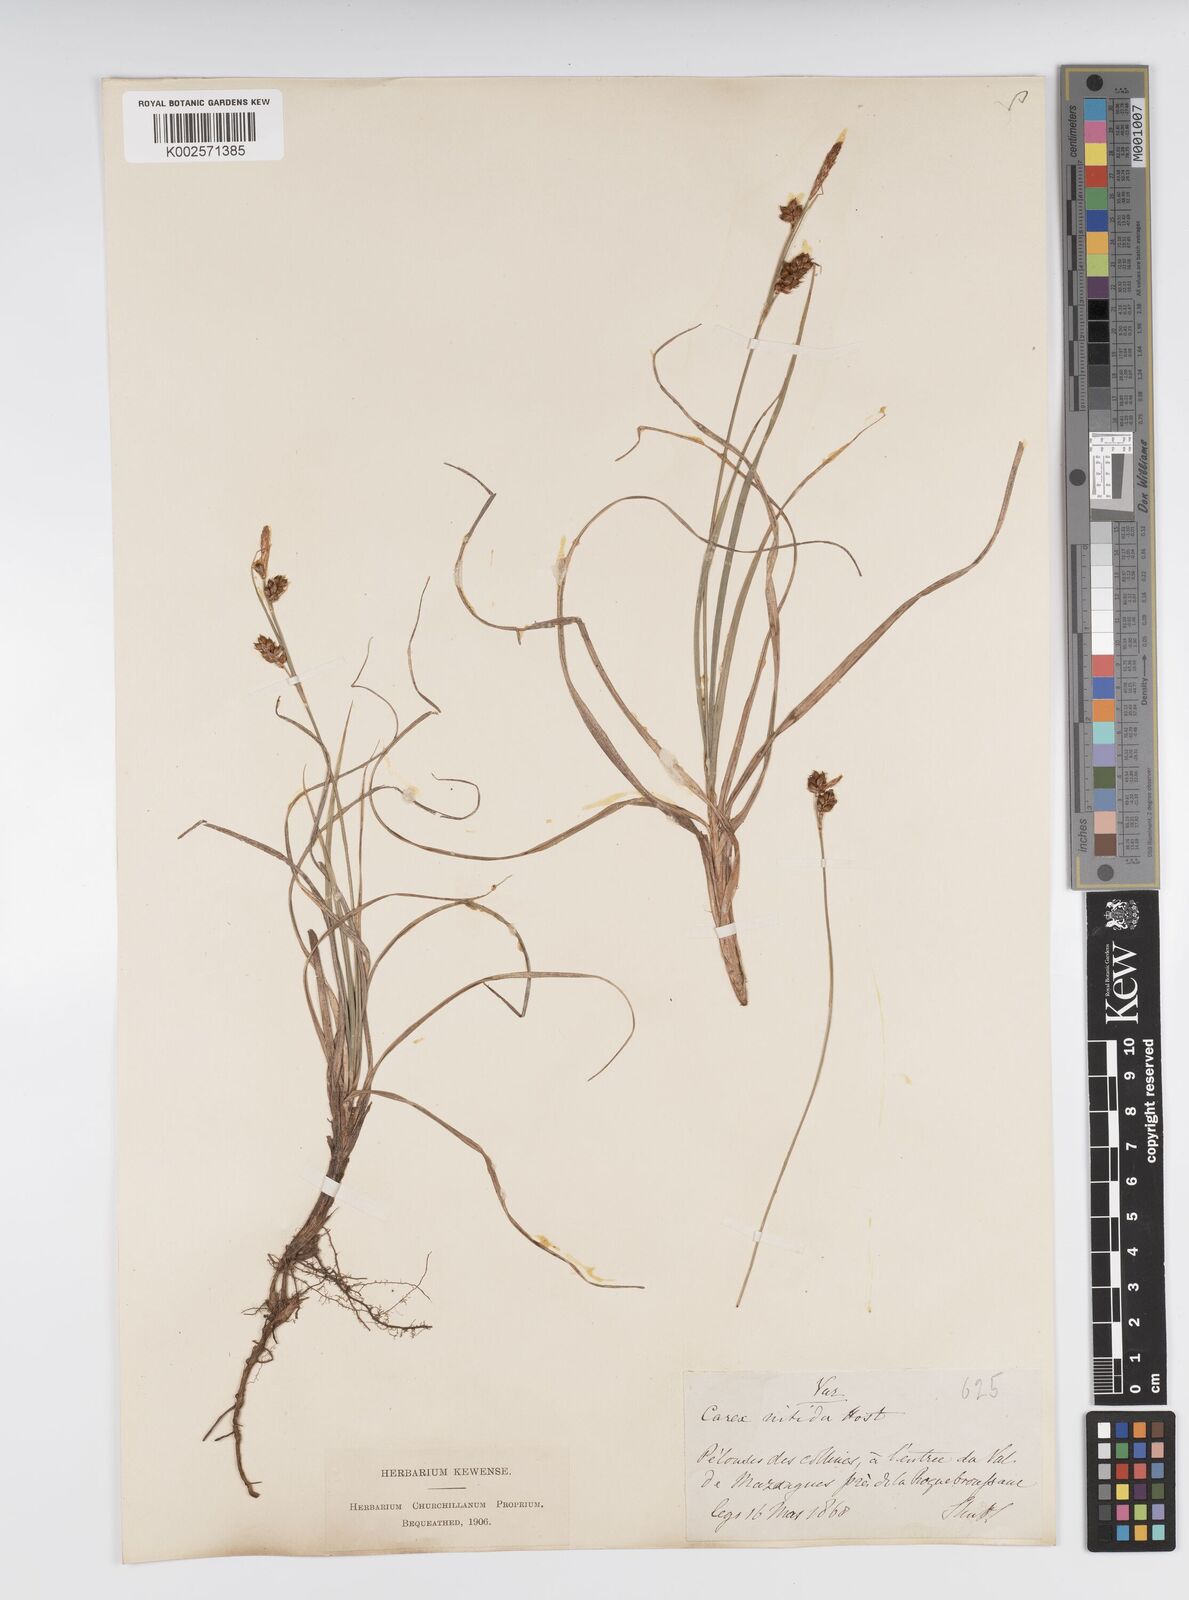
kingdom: Plantae
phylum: Tracheophyta
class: Liliopsida
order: Poales
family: Cyperaceae
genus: Carex
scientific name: Carex liparocarpos
